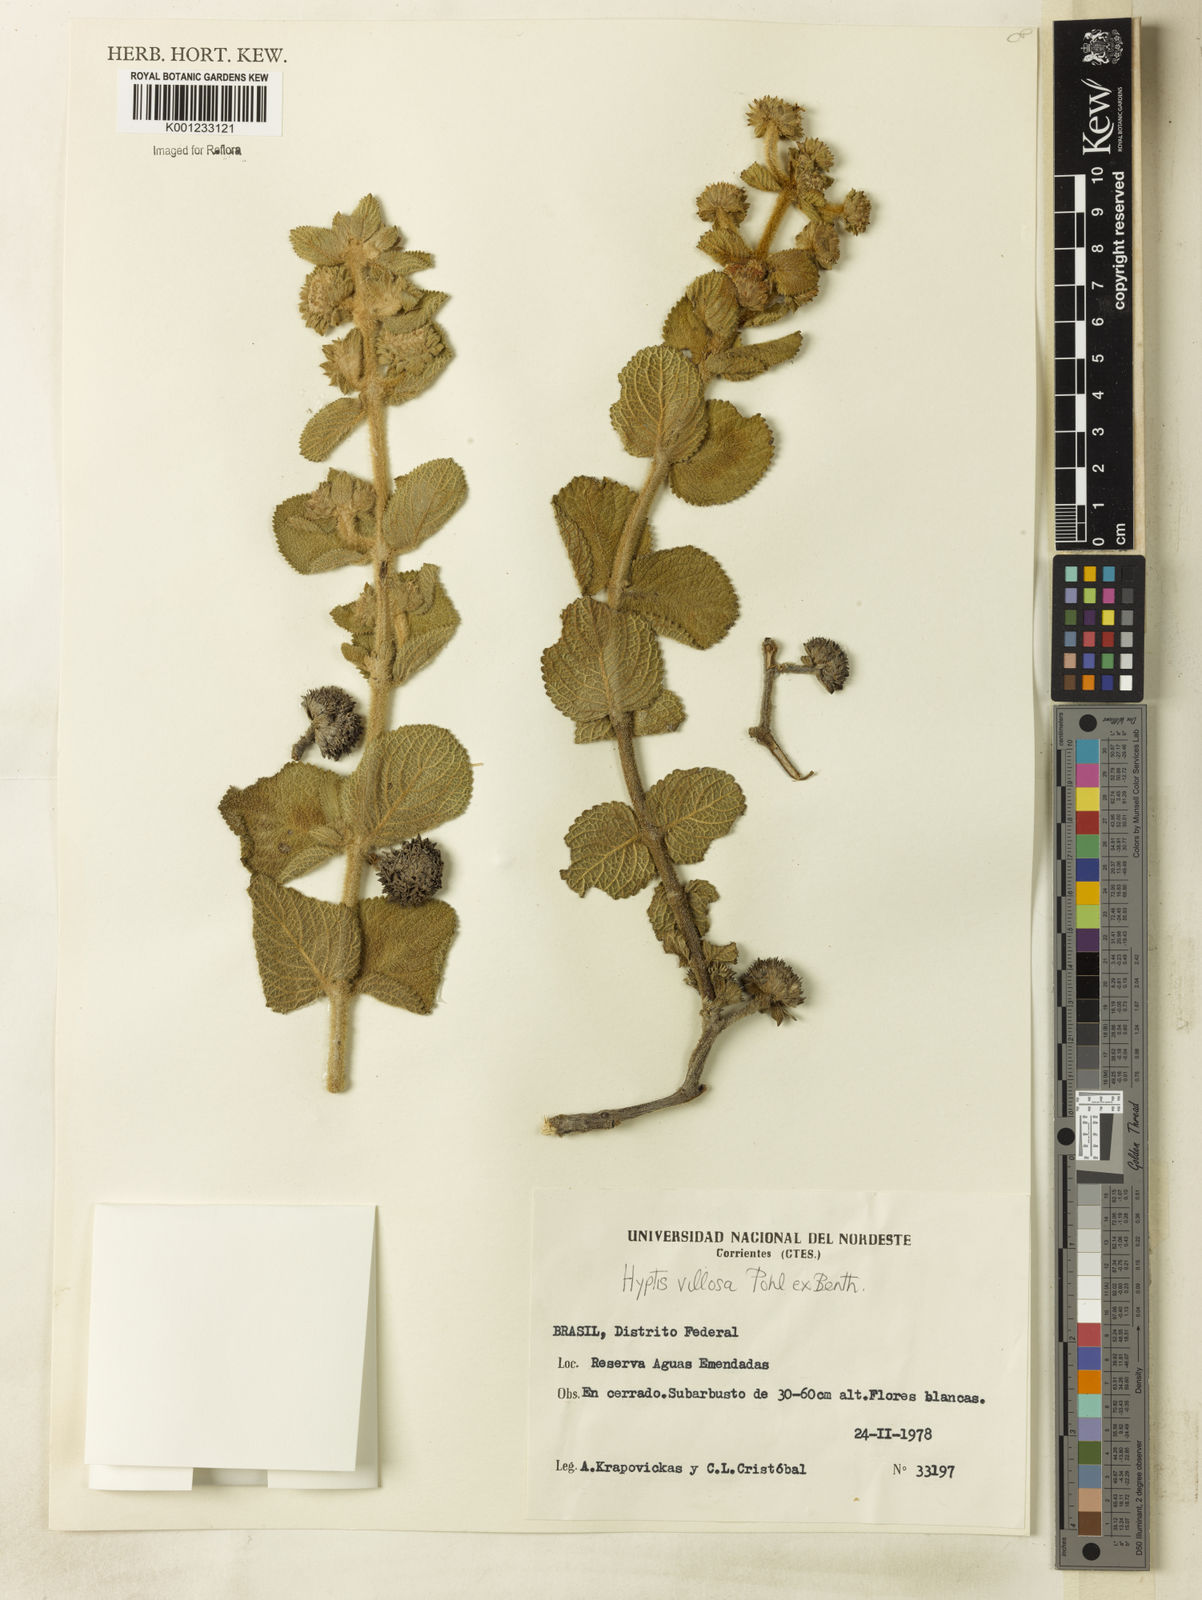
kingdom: Plantae
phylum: Tracheophyta
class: Magnoliopsida
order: Lamiales
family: Lamiaceae
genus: Hyptis
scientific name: Hyptis villosa
